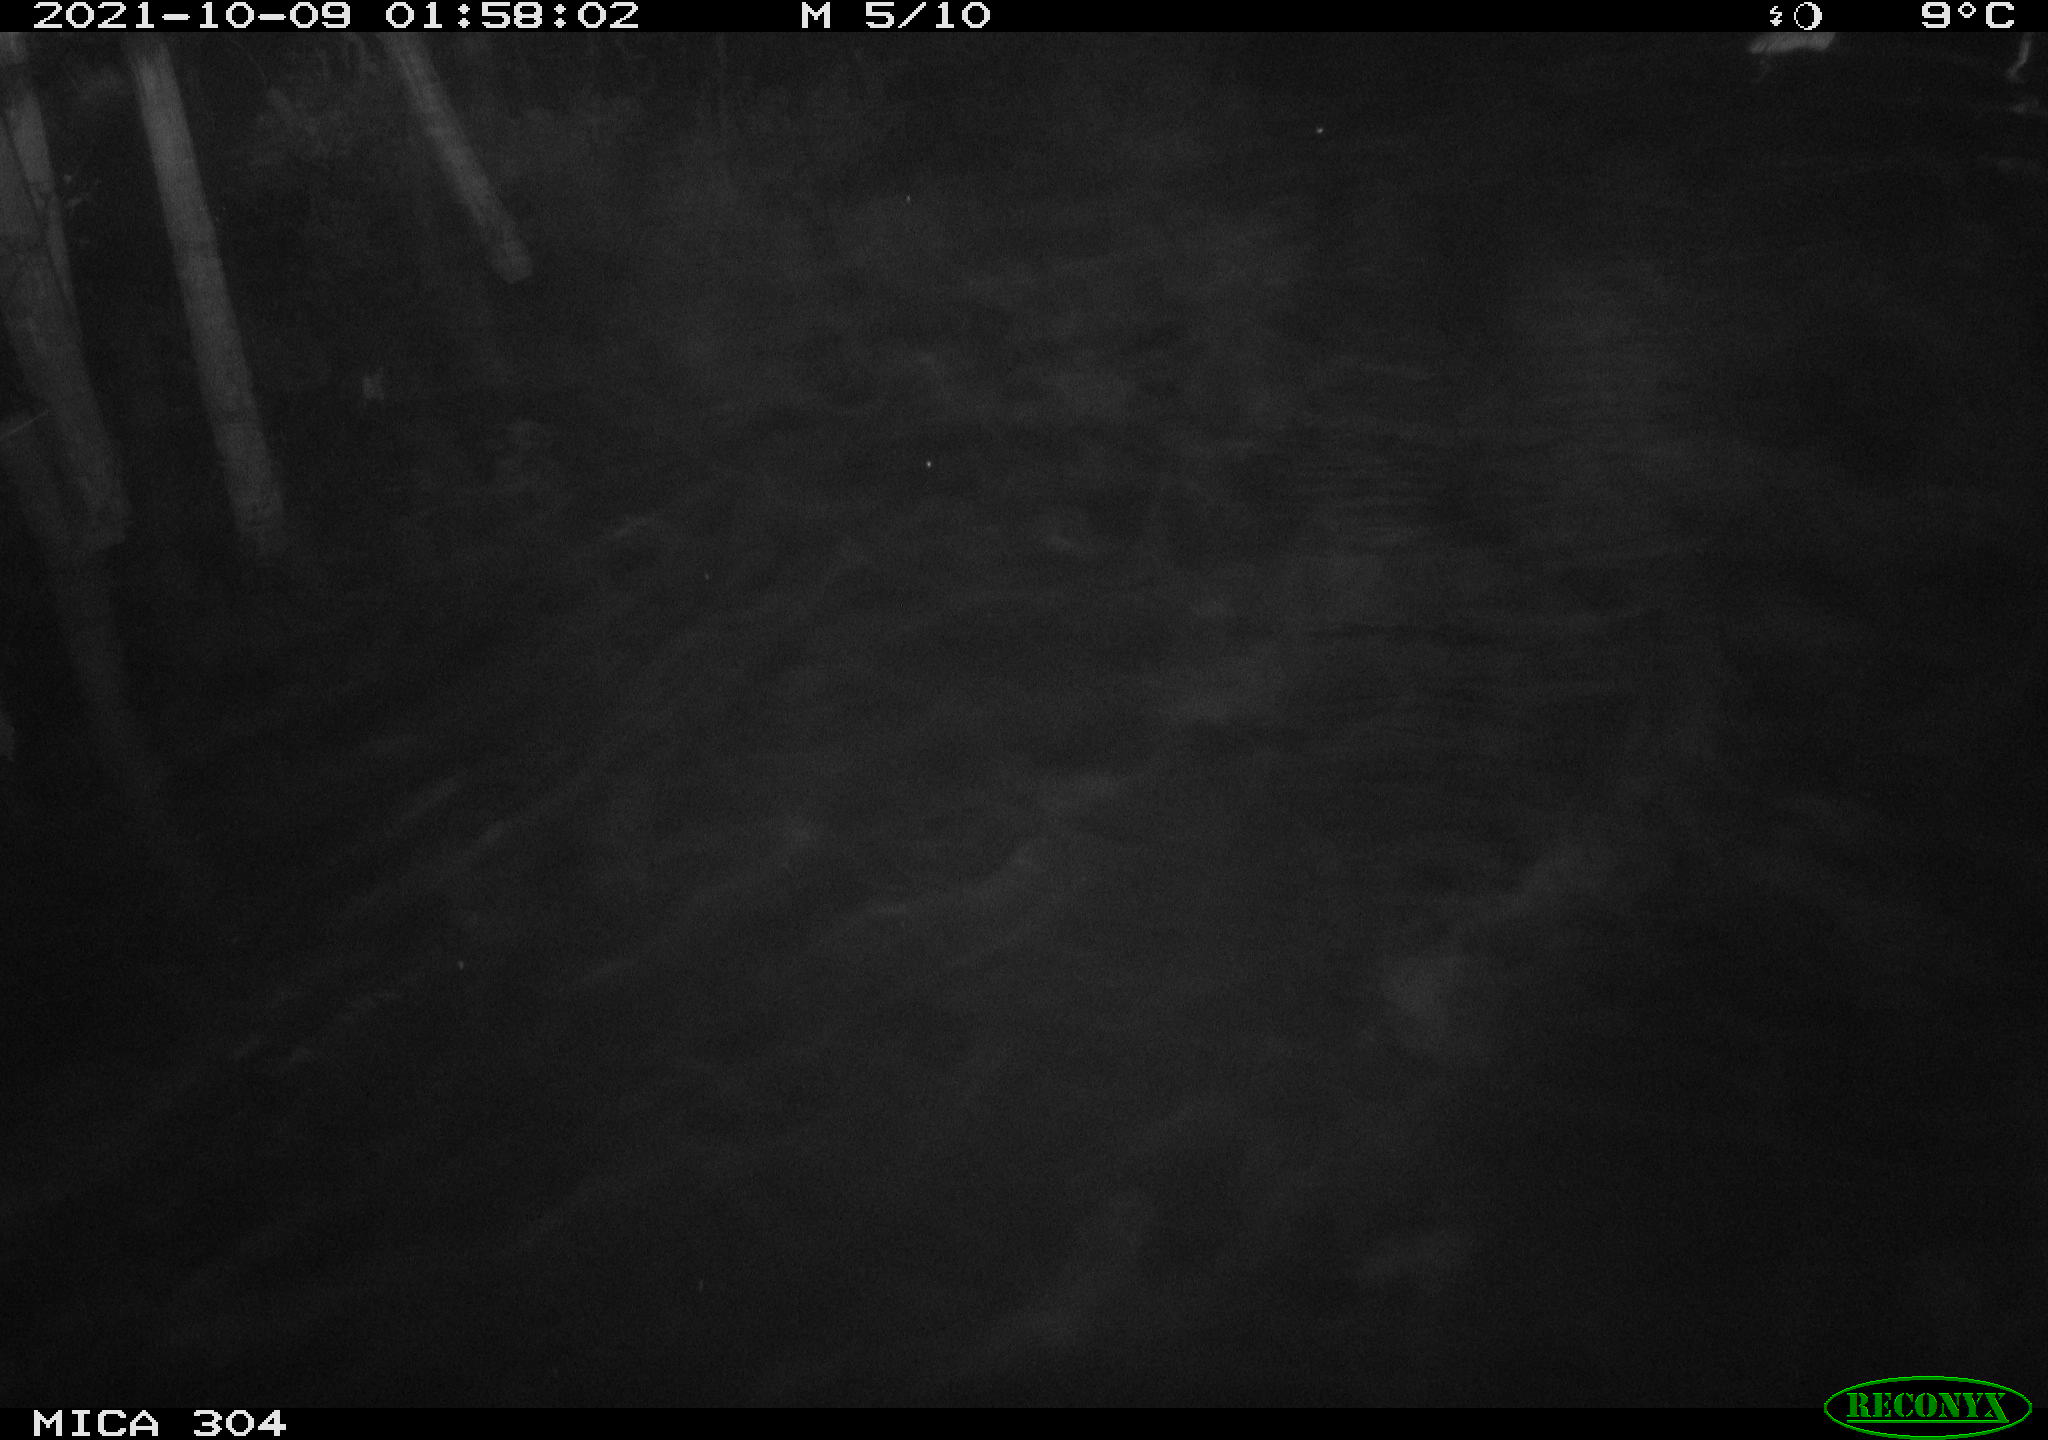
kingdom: Animalia
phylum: Chordata
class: Mammalia
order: Rodentia
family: Cricetidae
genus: Ondatra
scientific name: Ondatra zibethicus
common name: Muskrat
